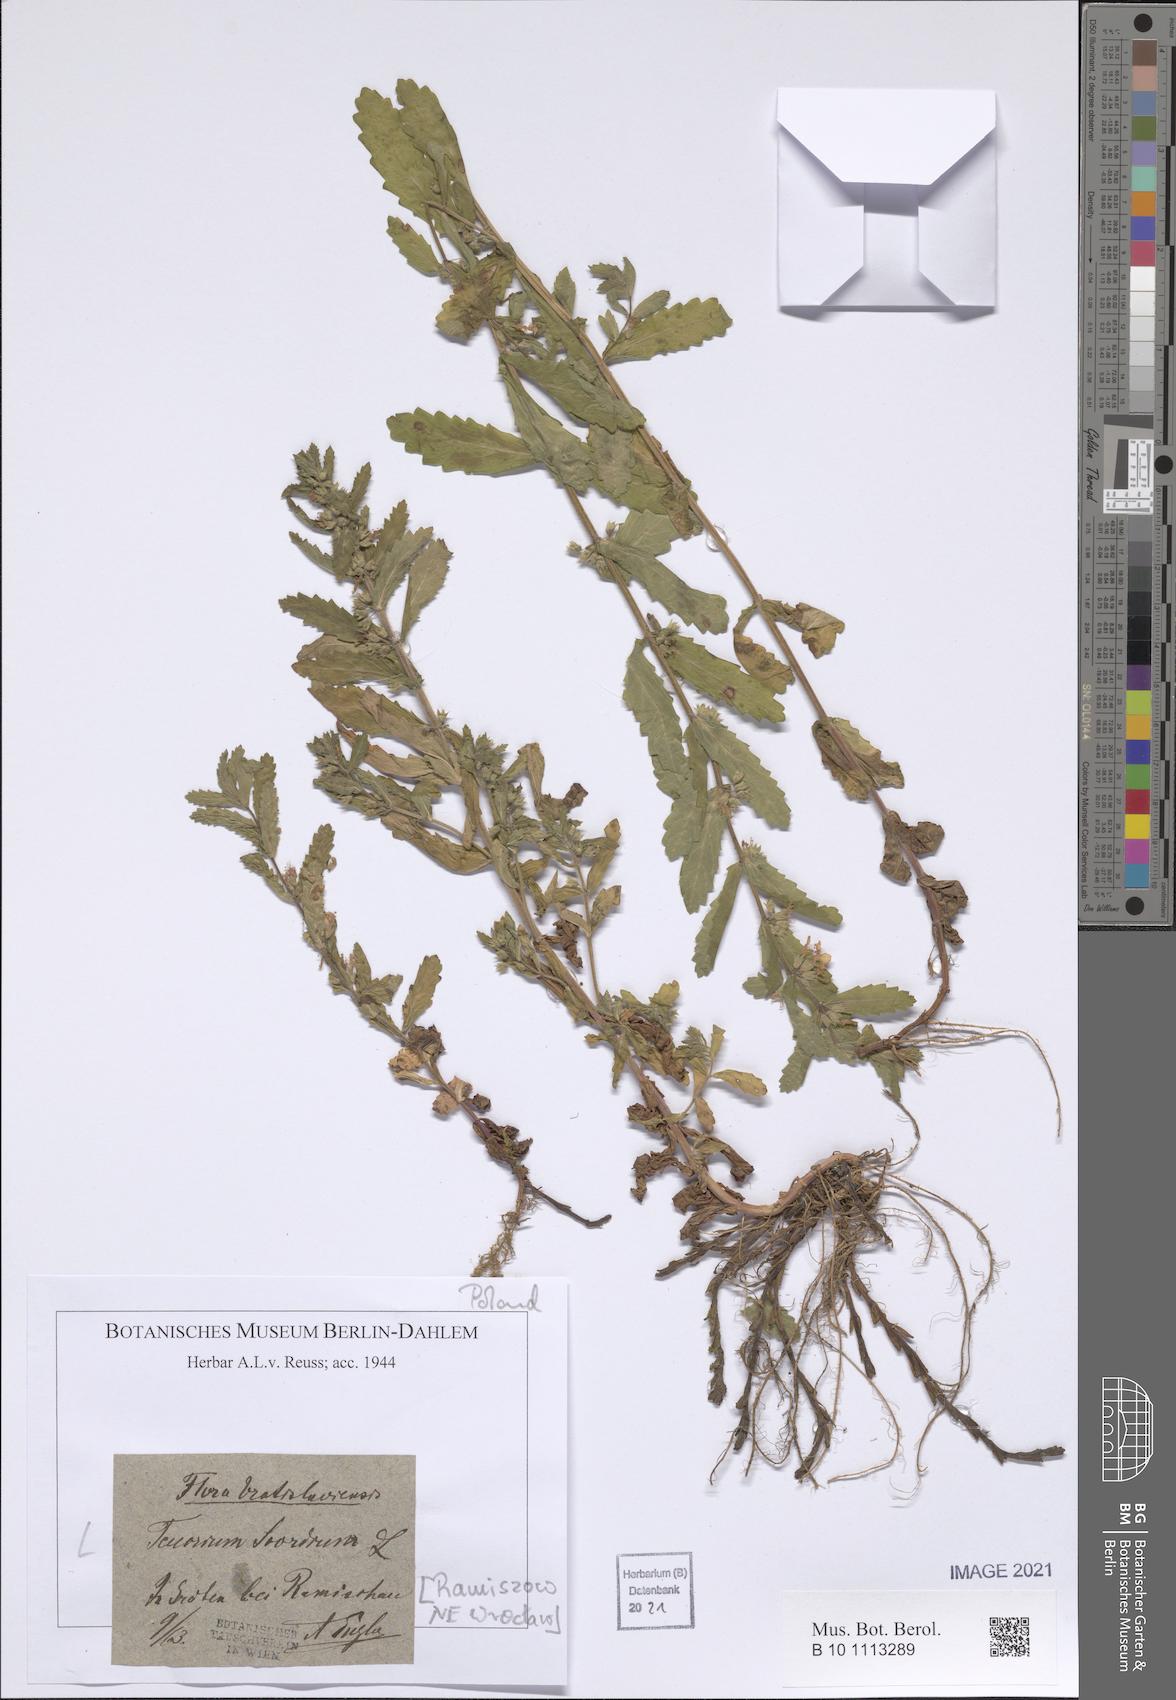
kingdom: Plantae
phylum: Tracheophyta
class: Magnoliopsida
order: Lamiales
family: Lamiaceae
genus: Teucrium
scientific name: Teucrium scordium
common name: Water germander
